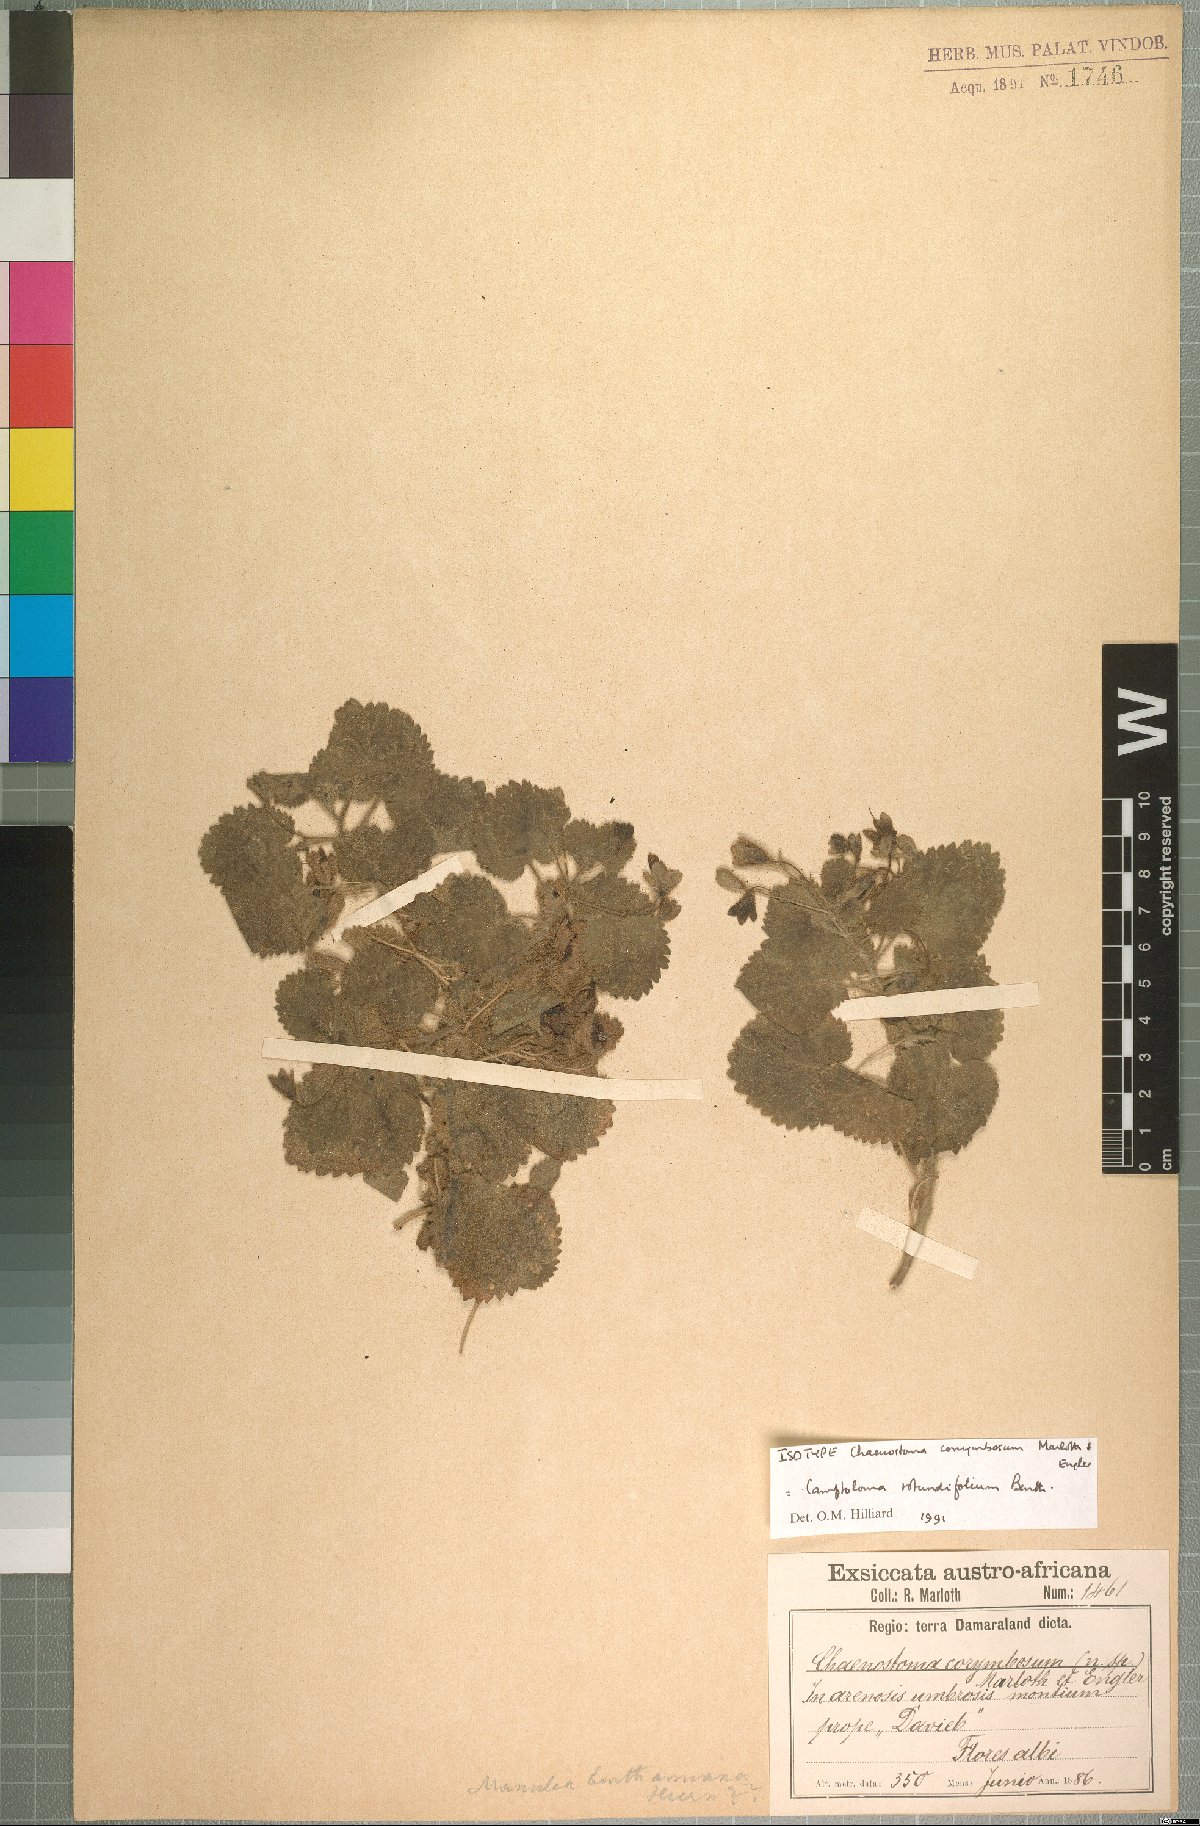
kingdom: Plantae
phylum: Tracheophyta
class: Magnoliopsida
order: Lamiales
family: Scrophulariaceae
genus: Camptoloma
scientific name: Camptoloma rotundifolium
